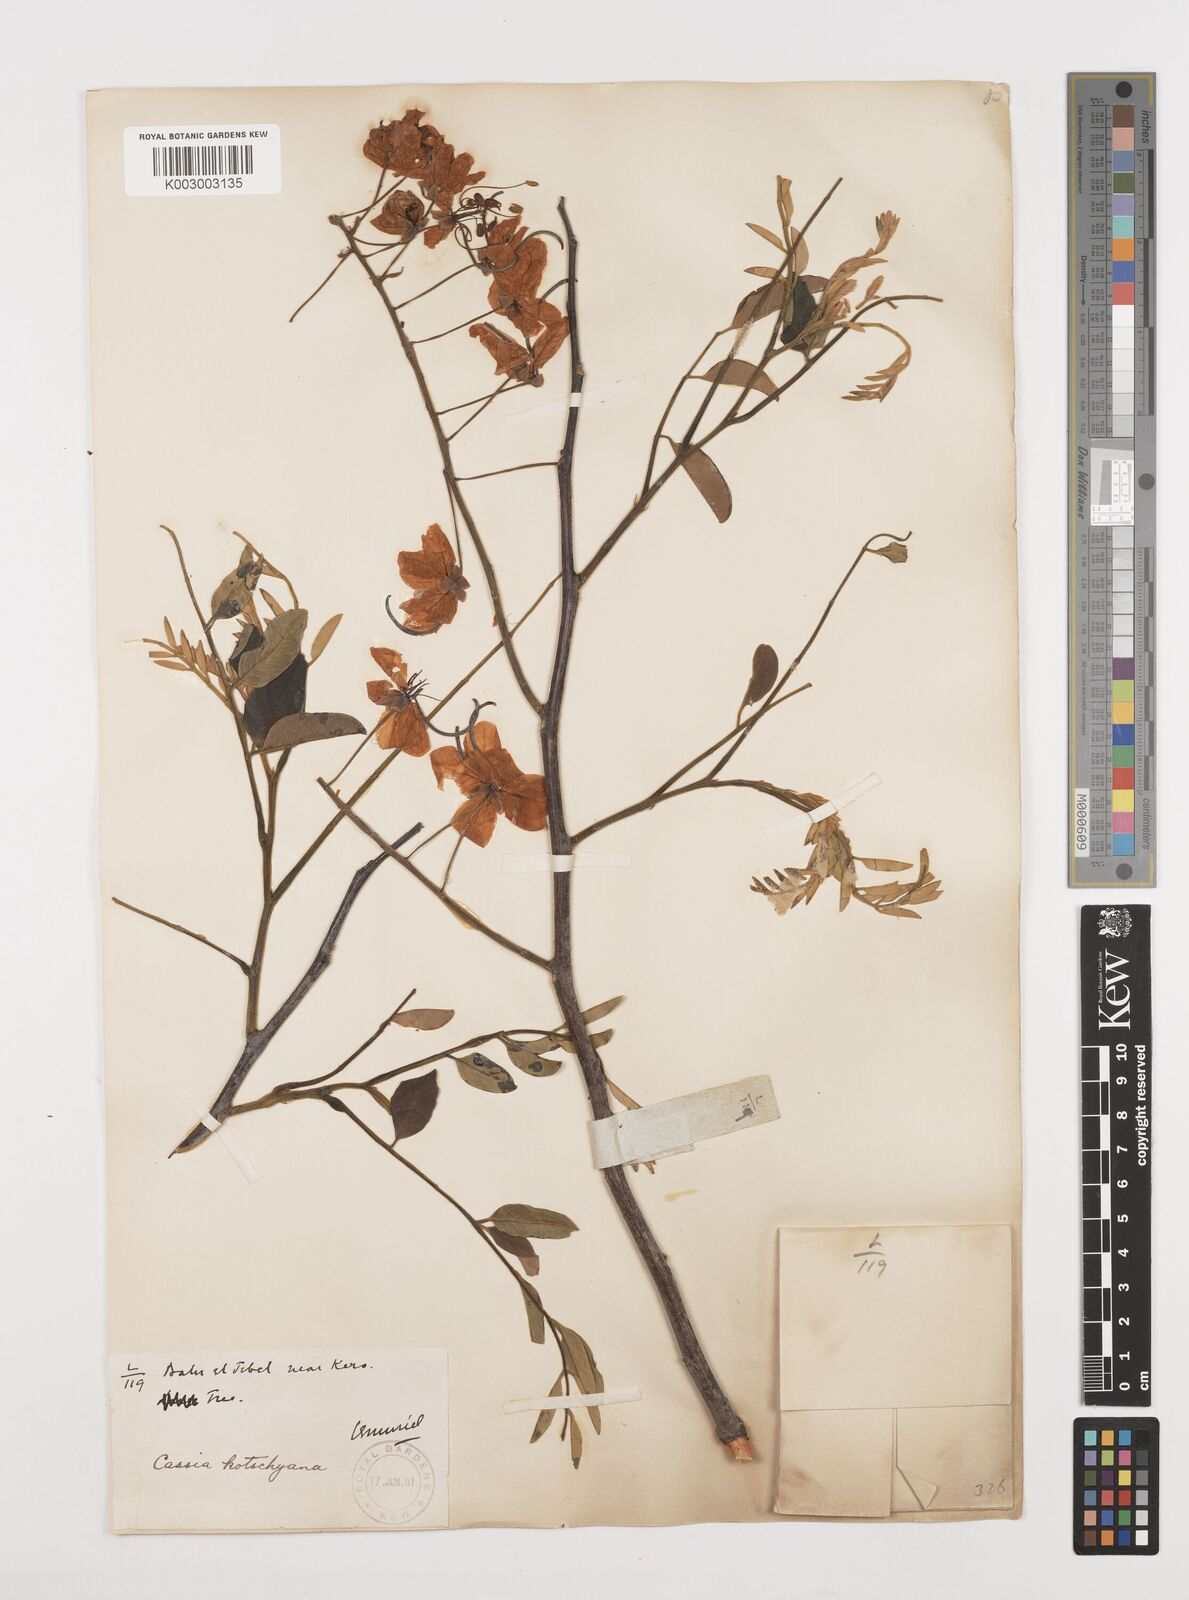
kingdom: Plantae
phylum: Tracheophyta
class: Magnoliopsida
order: Fabales
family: Fabaceae
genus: Cassia
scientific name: Cassia sieberiana
